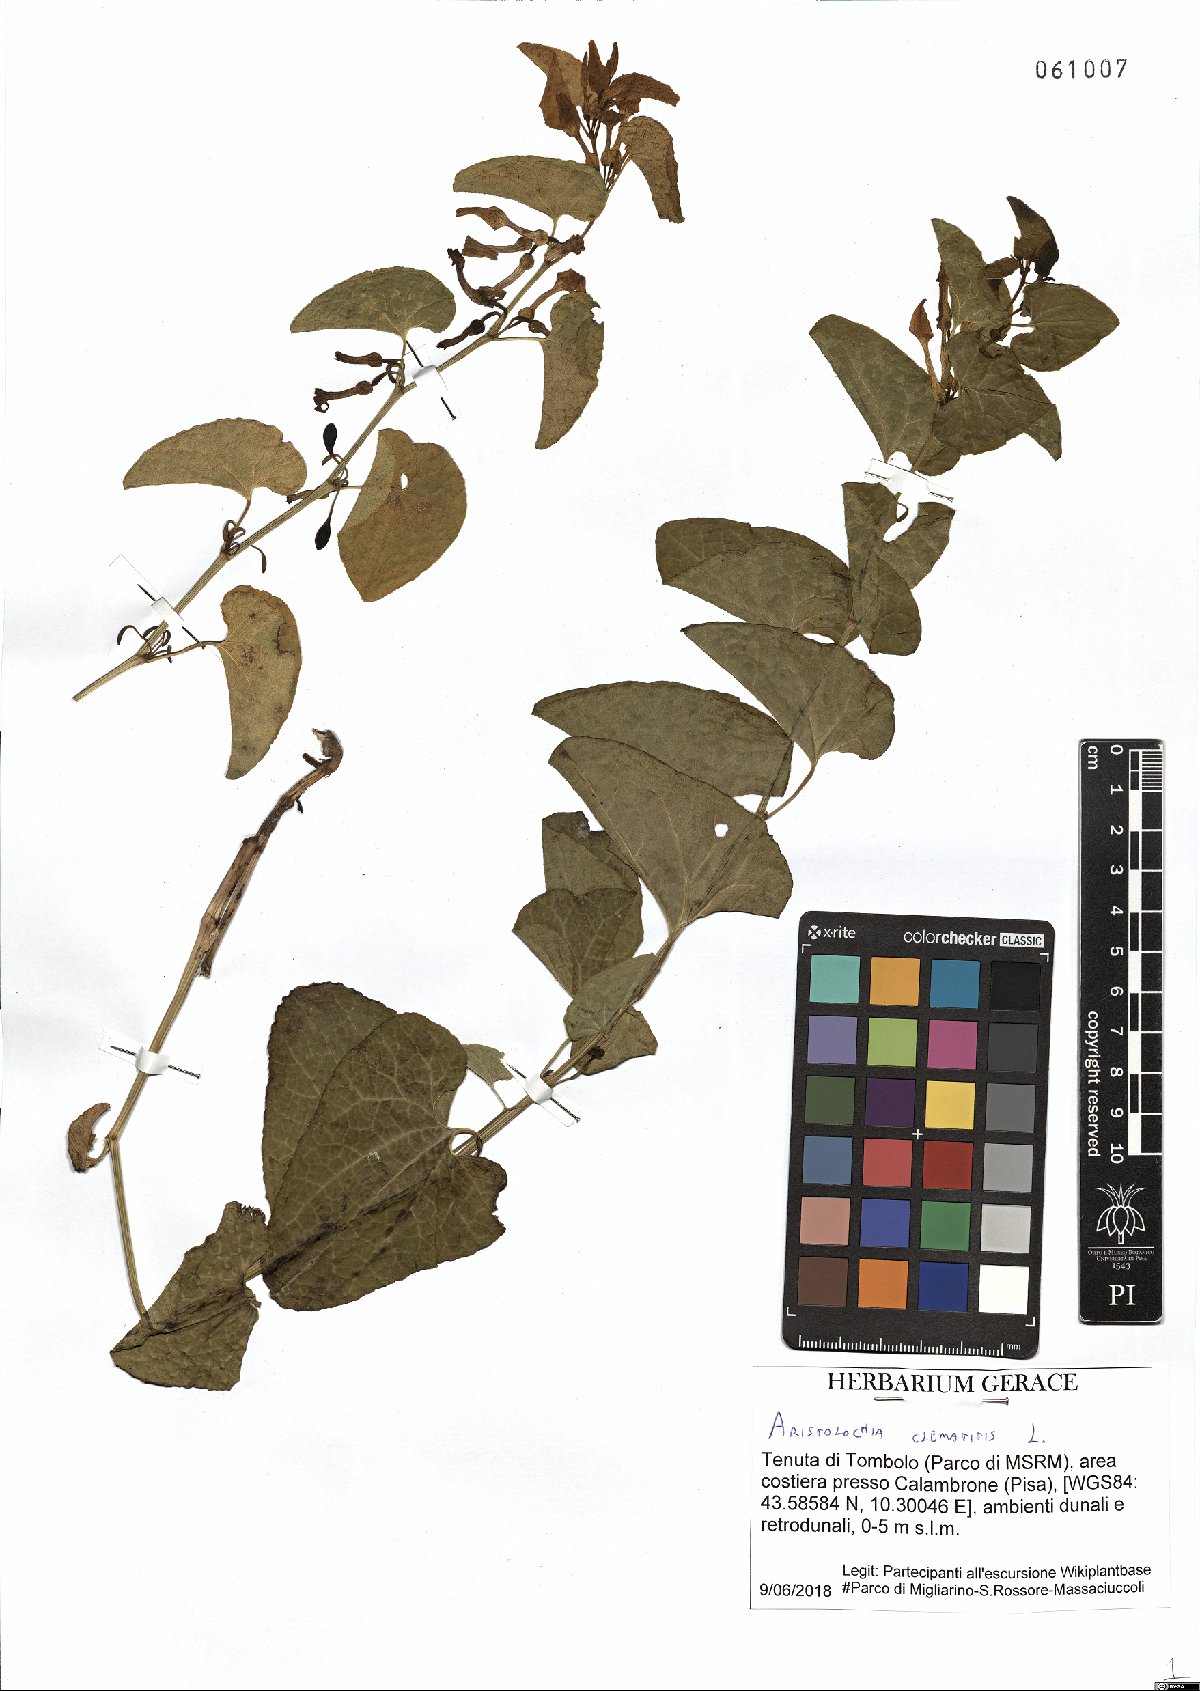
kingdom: Plantae
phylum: Tracheophyta
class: Magnoliopsida
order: Piperales
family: Aristolochiaceae
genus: Aristolochia
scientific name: Aristolochia clematitis
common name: Birthwort
